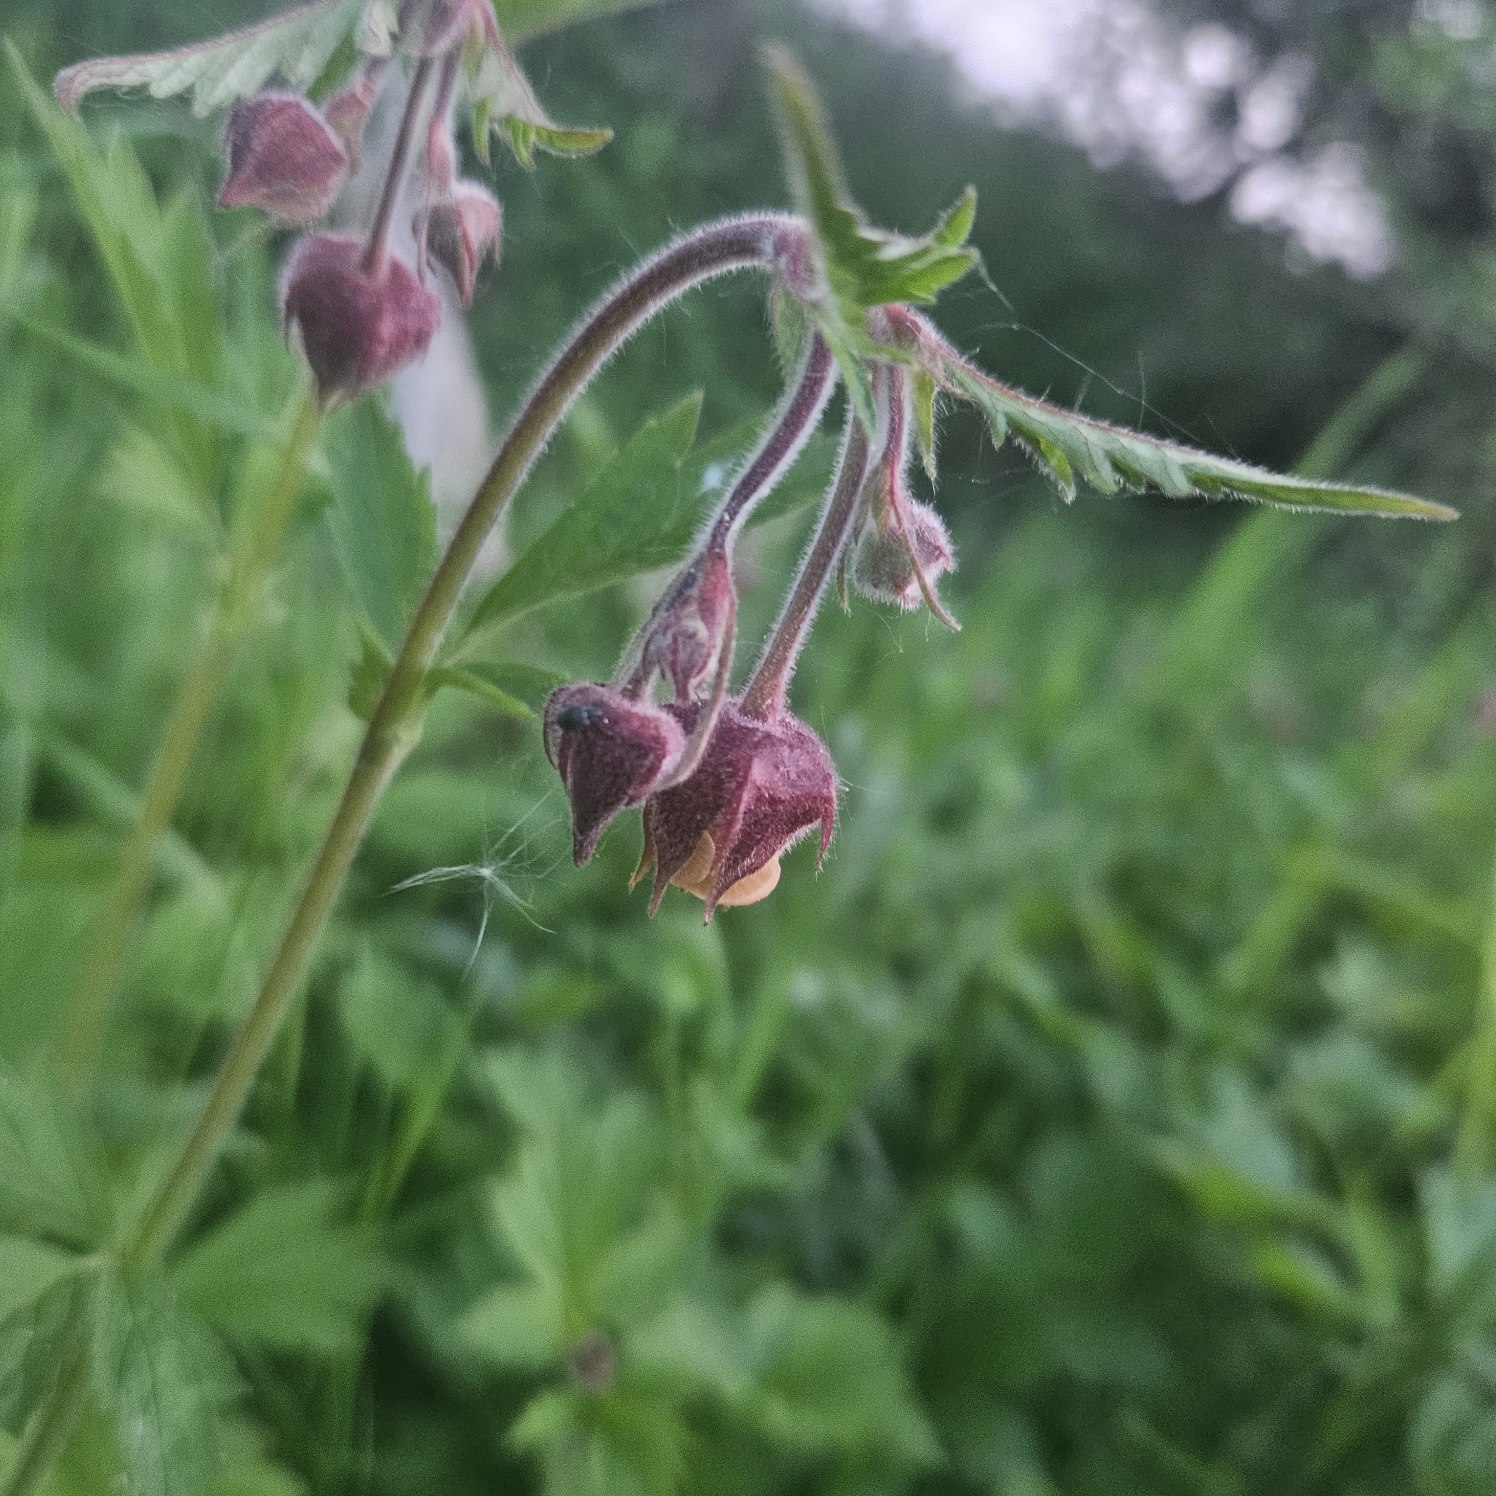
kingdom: Plantae
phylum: Tracheophyta
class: Magnoliopsida
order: Rosales
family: Rosaceae
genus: Geum
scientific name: Geum rivale
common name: Eng-nellikerod
